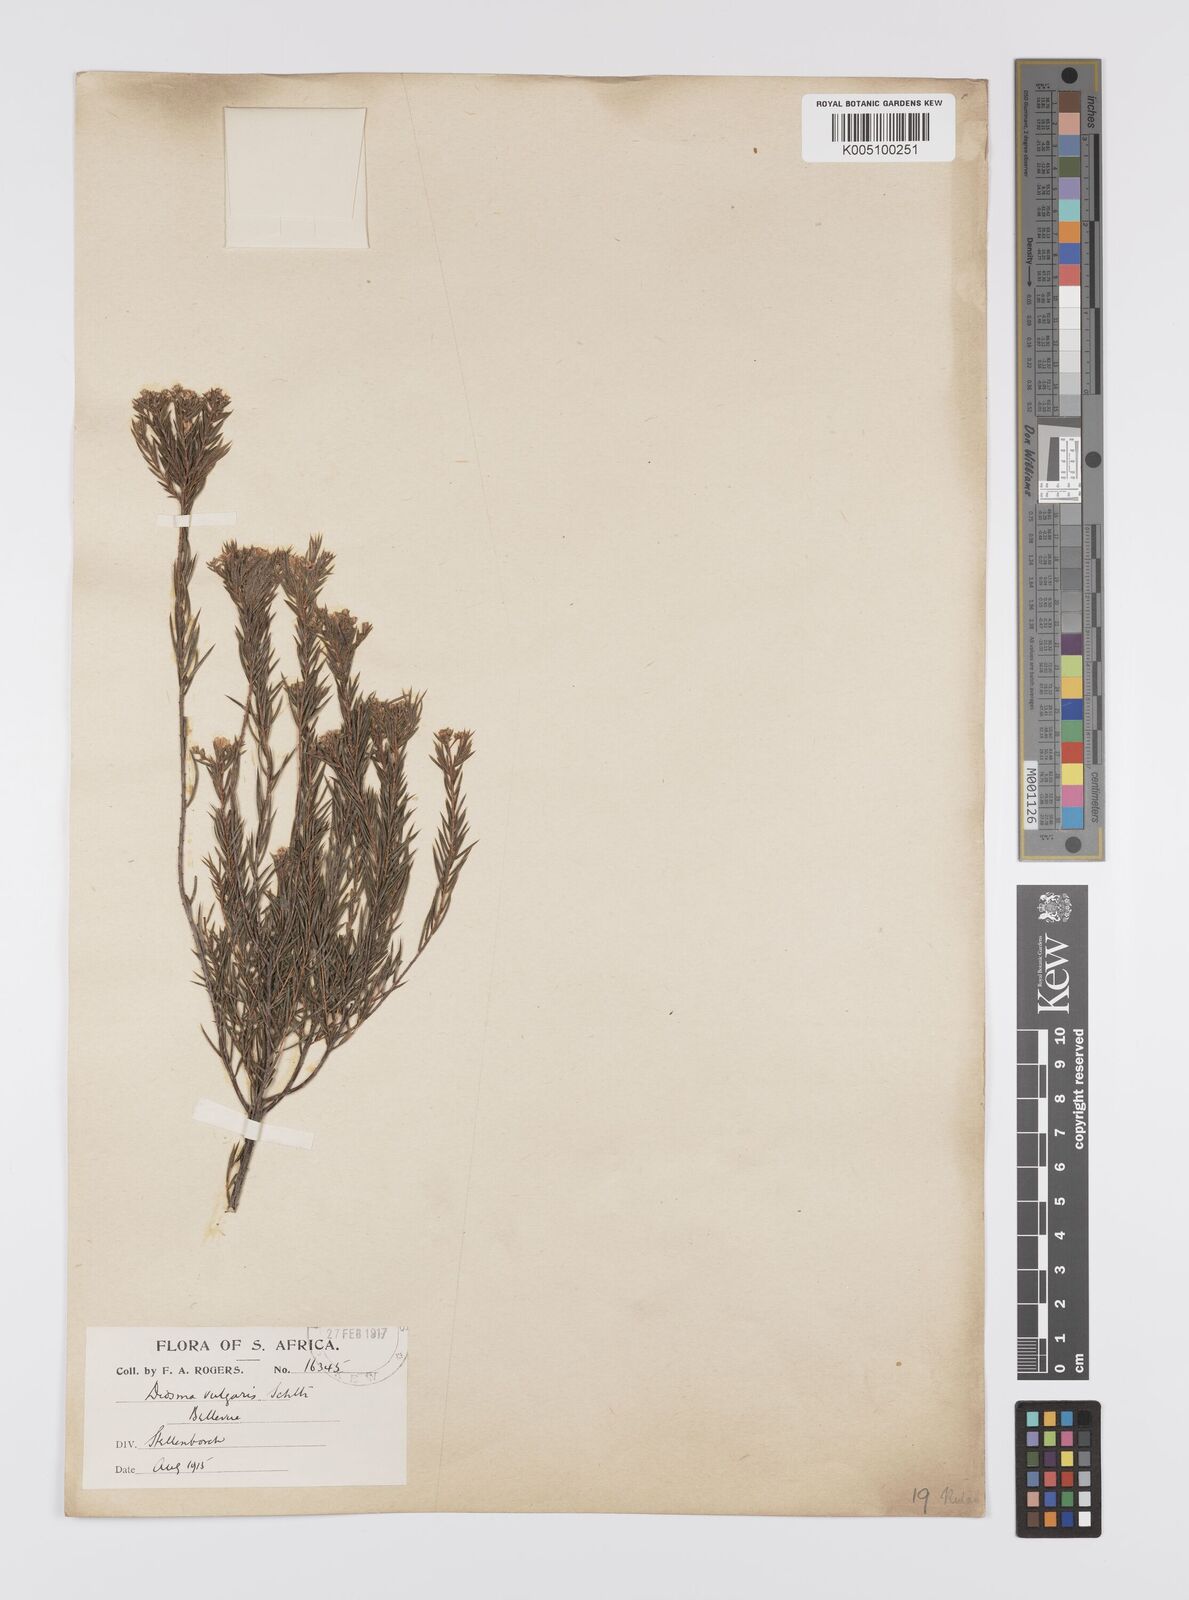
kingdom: Plantae
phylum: Tracheophyta
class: Magnoliopsida
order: Sapindales
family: Rutaceae
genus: Diosma
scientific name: Diosma hirsuta
